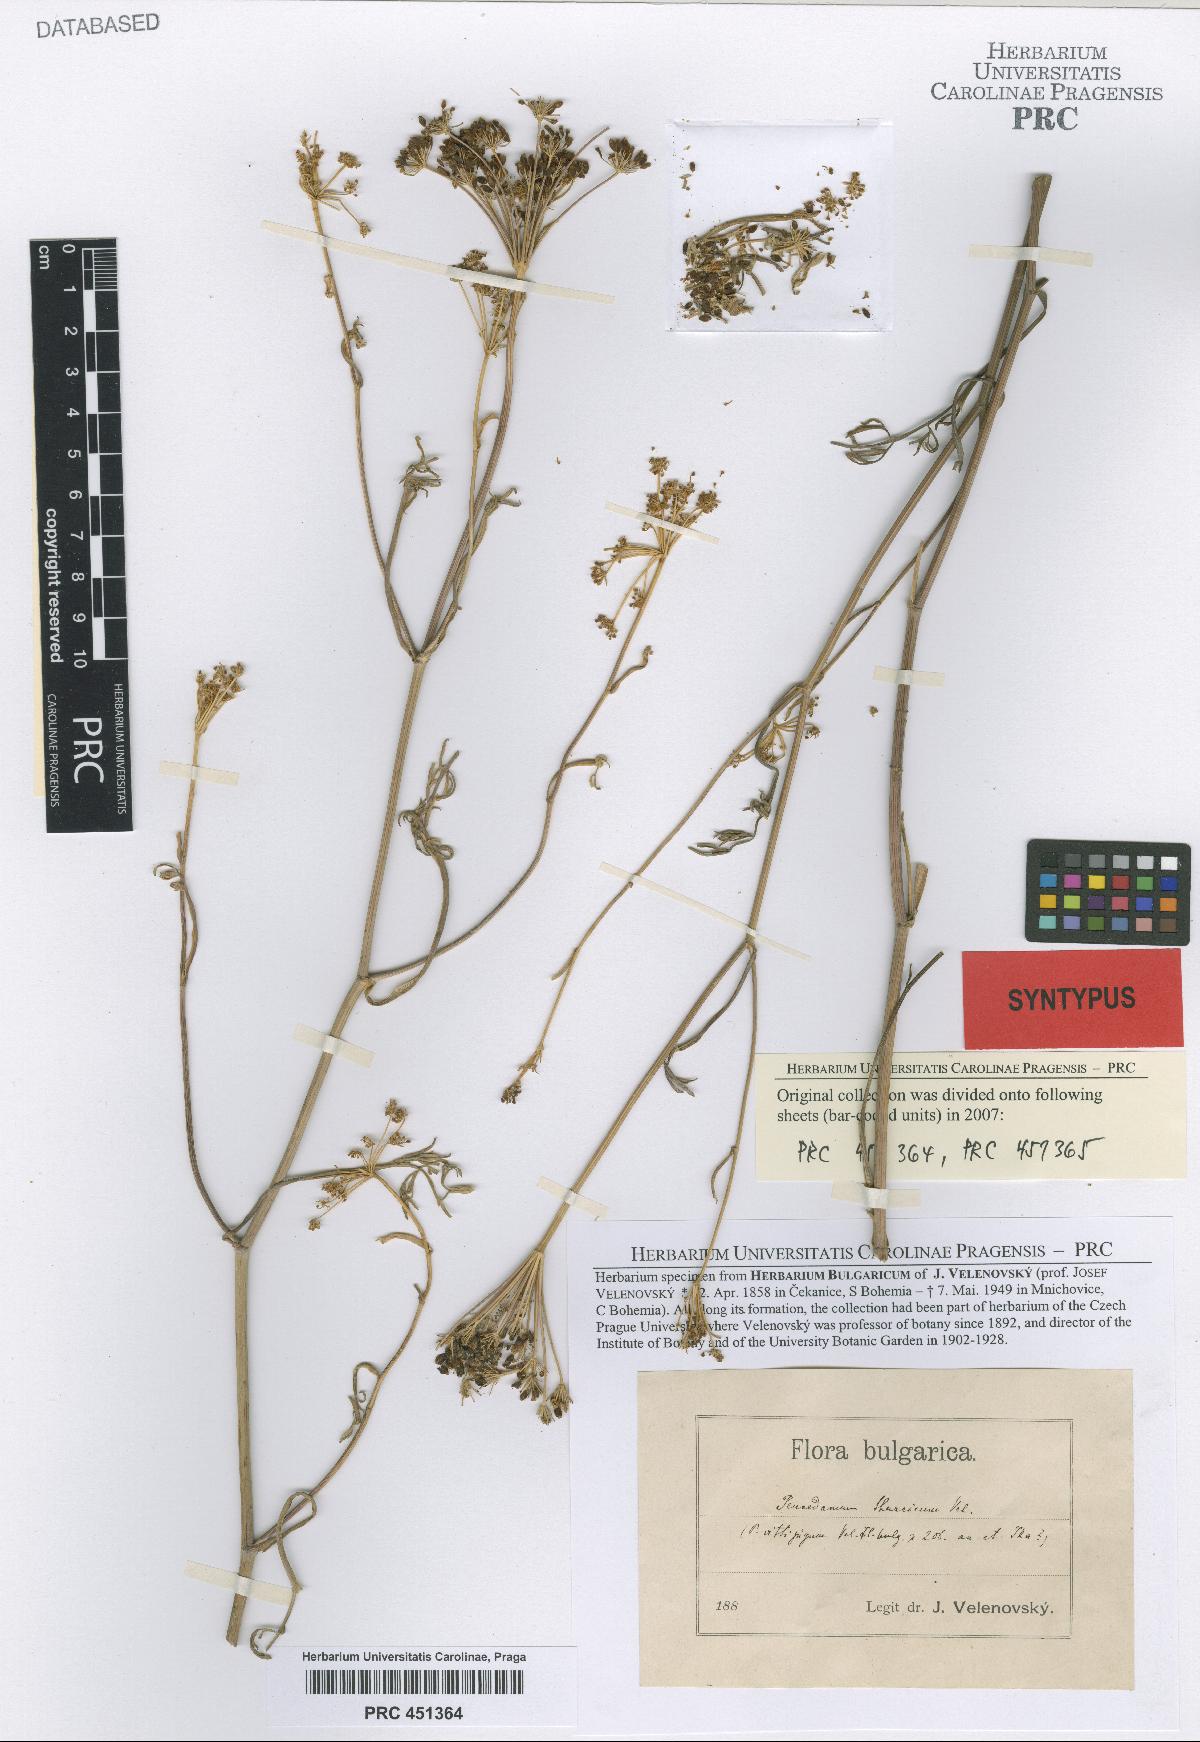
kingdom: Plantae
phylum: Tracheophyta
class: Magnoliopsida
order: Apiales
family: Apiaceae
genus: Dichoropetalum
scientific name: Dichoropetalum vittijugum
